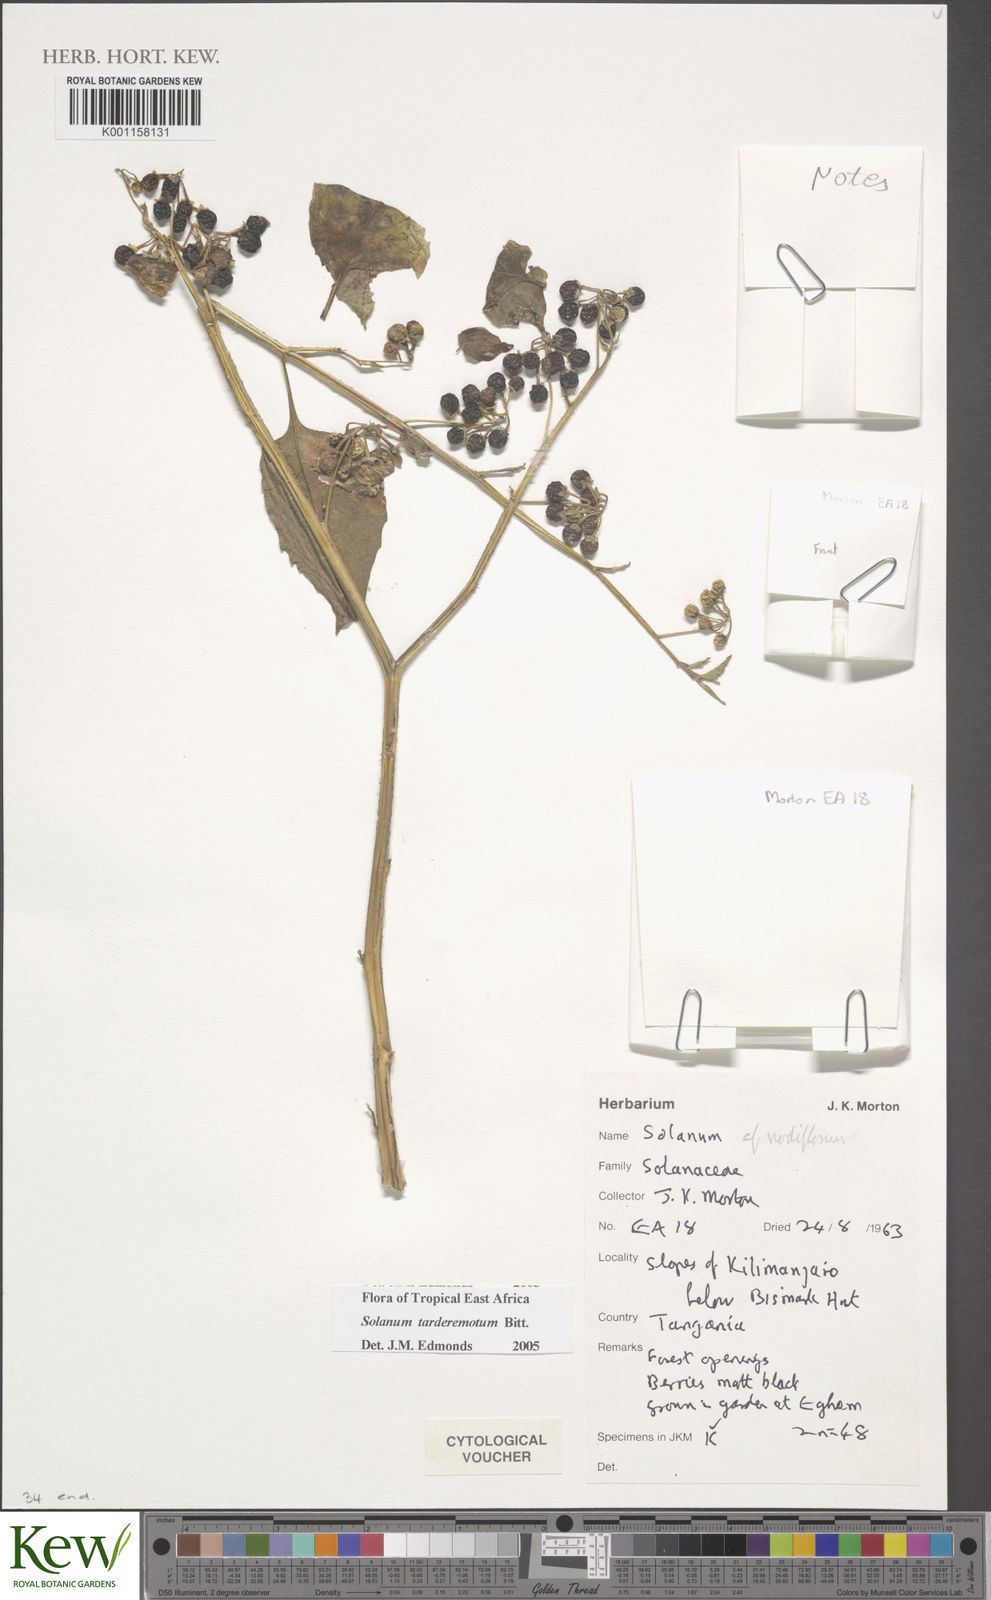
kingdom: Plantae
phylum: Tracheophyta
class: Magnoliopsida
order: Solanales
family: Solanaceae
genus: Solanum
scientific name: Solanum tarderemotum
